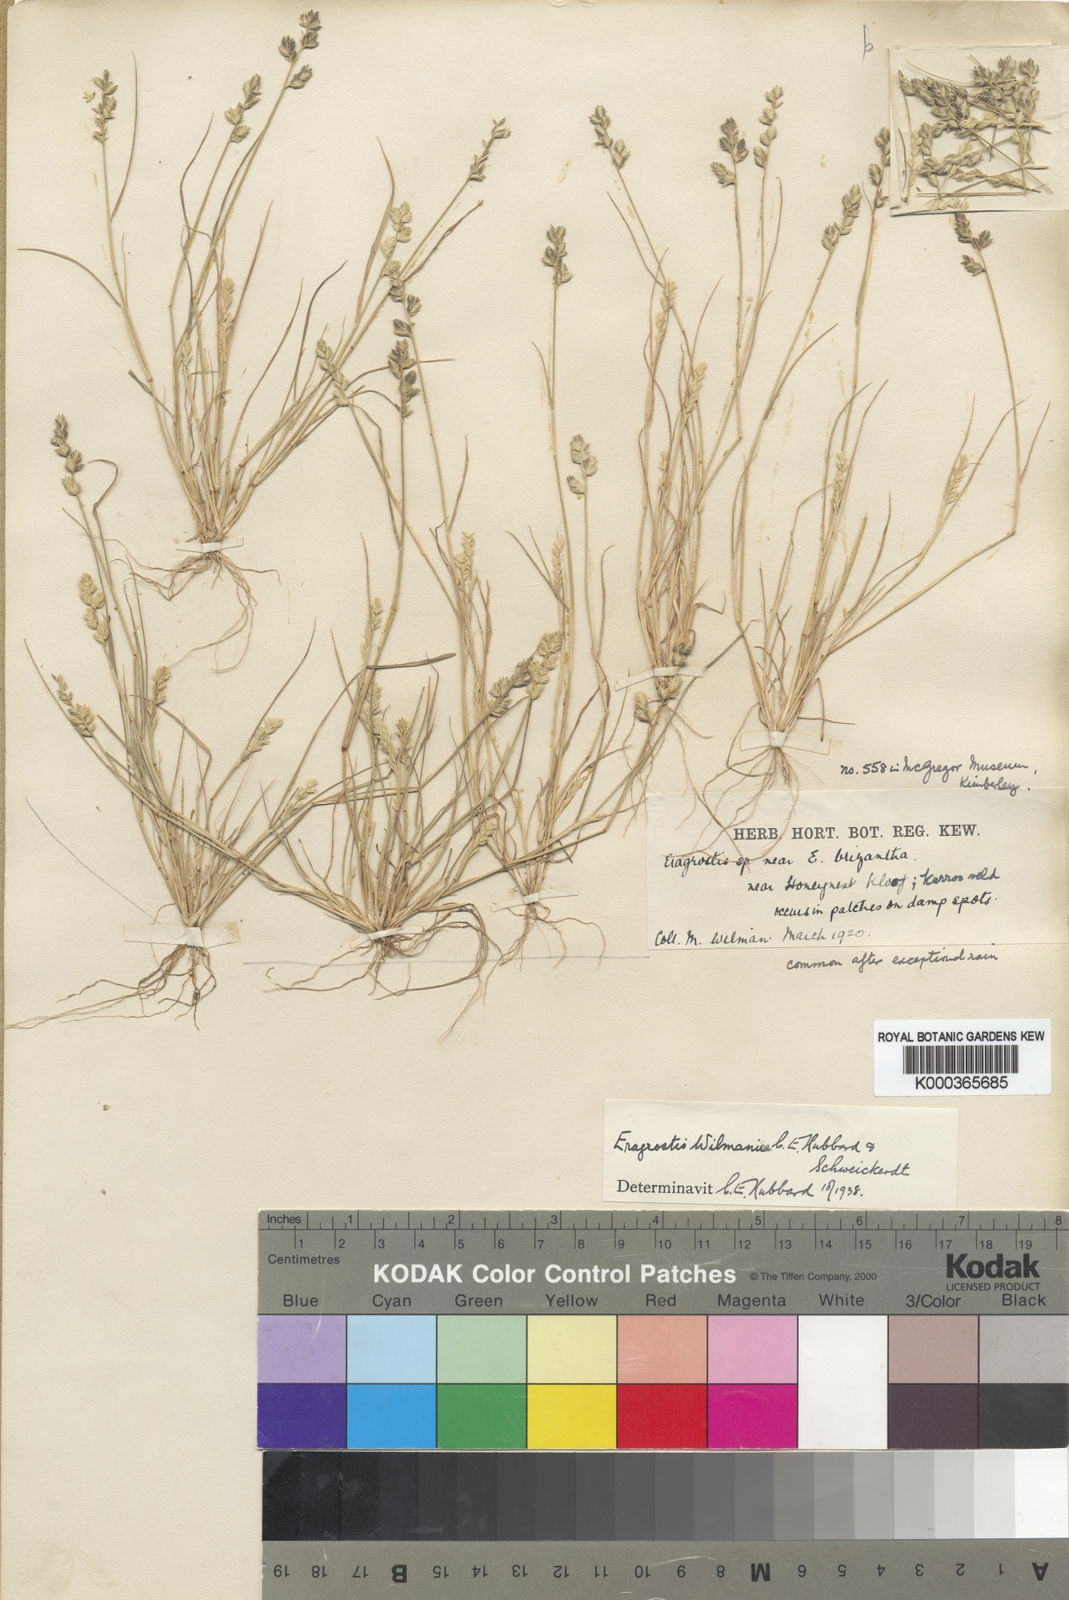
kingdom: Plantae
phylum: Tracheophyta
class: Liliopsida
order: Poales
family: Poaceae
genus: Eragrostis
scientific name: Eragrostis macrochlamys
